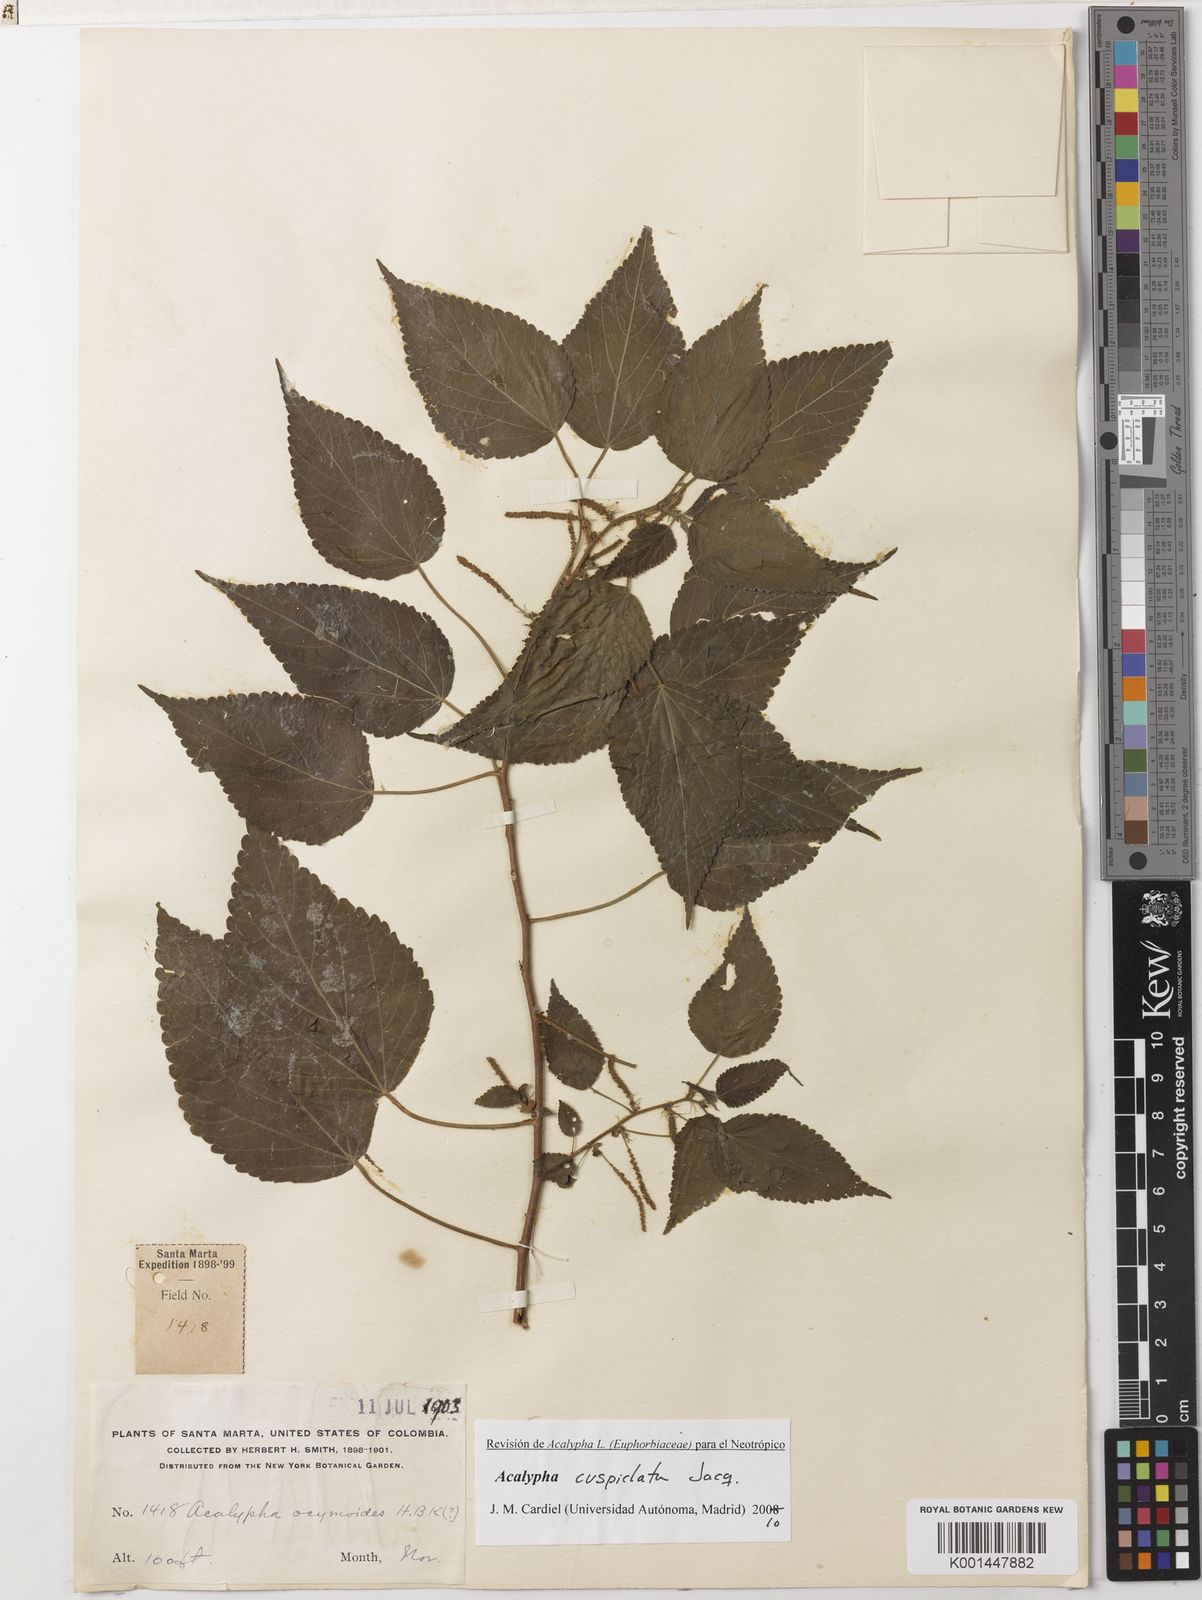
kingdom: Plantae
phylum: Tracheophyta
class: Magnoliopsida
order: Malpighiales
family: Euphorbiaceae
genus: Acalypha
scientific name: Acalypha cuspidata
